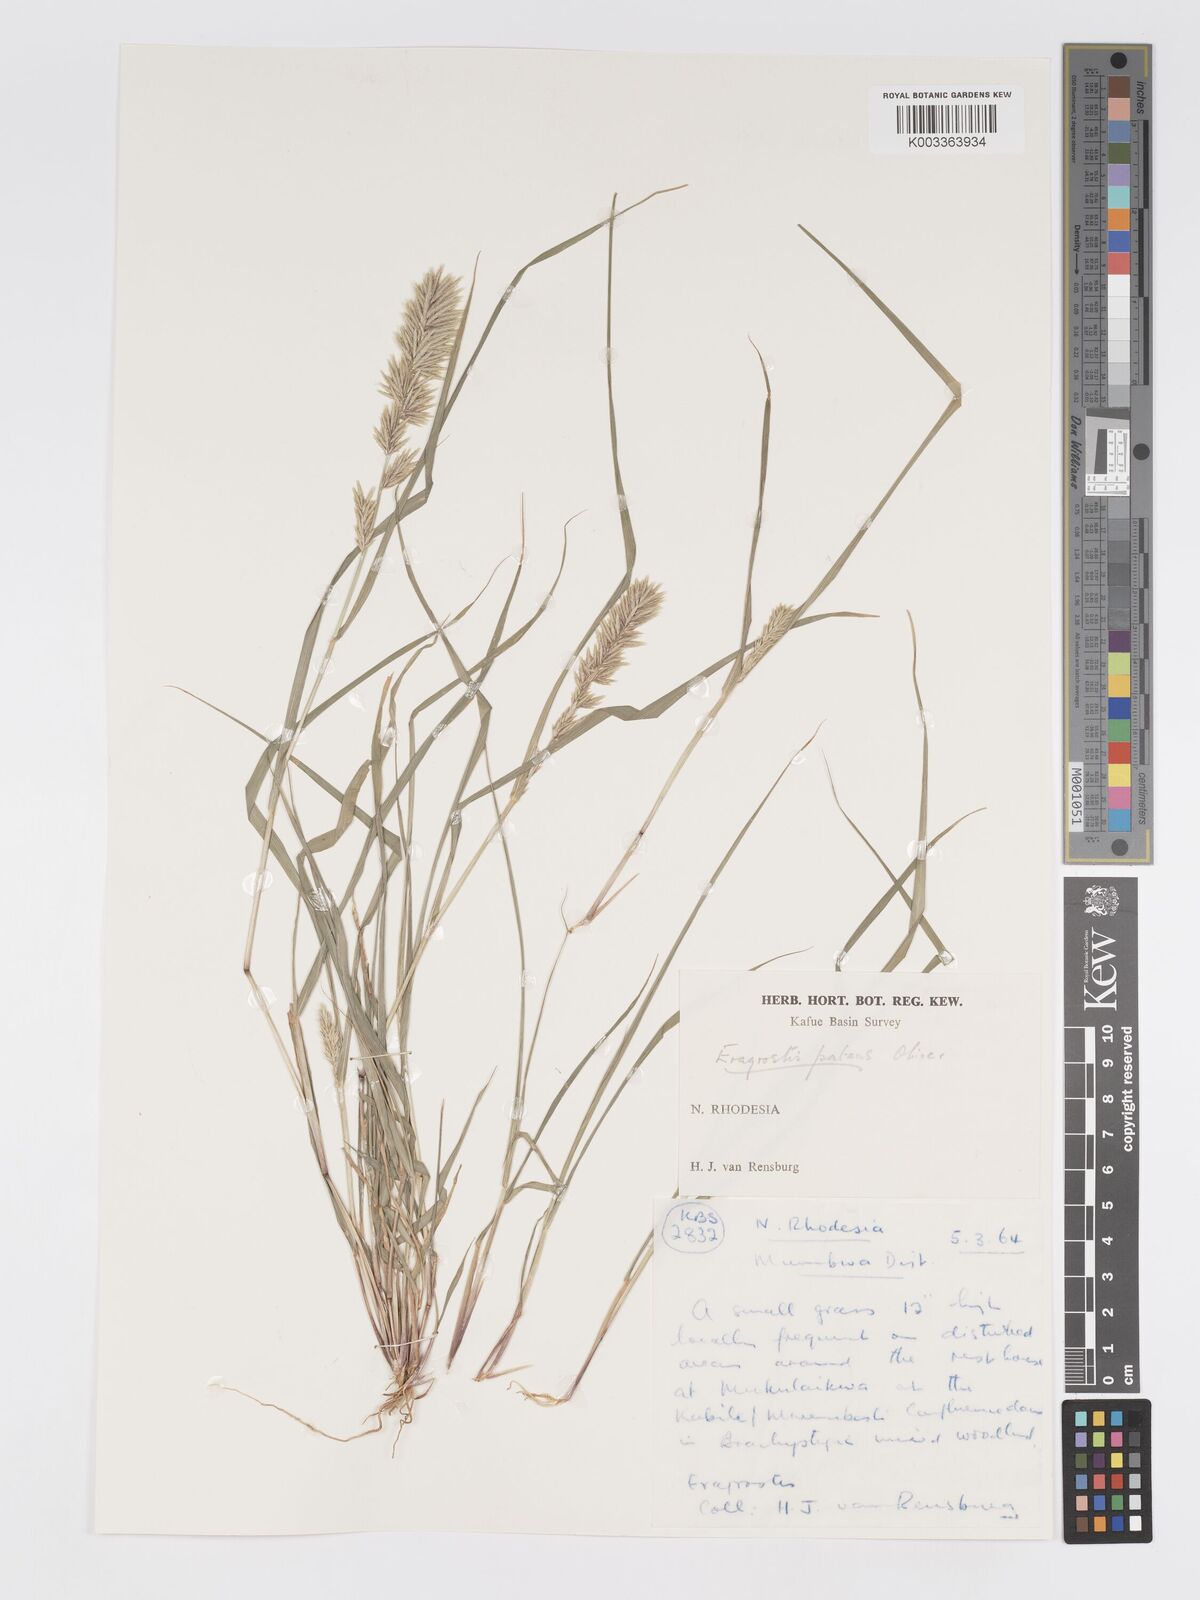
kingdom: Plantae
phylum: Tracheophyta
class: Liliopsida
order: Poales
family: Poaceae
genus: Eragrostis
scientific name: Eragrostis patens
